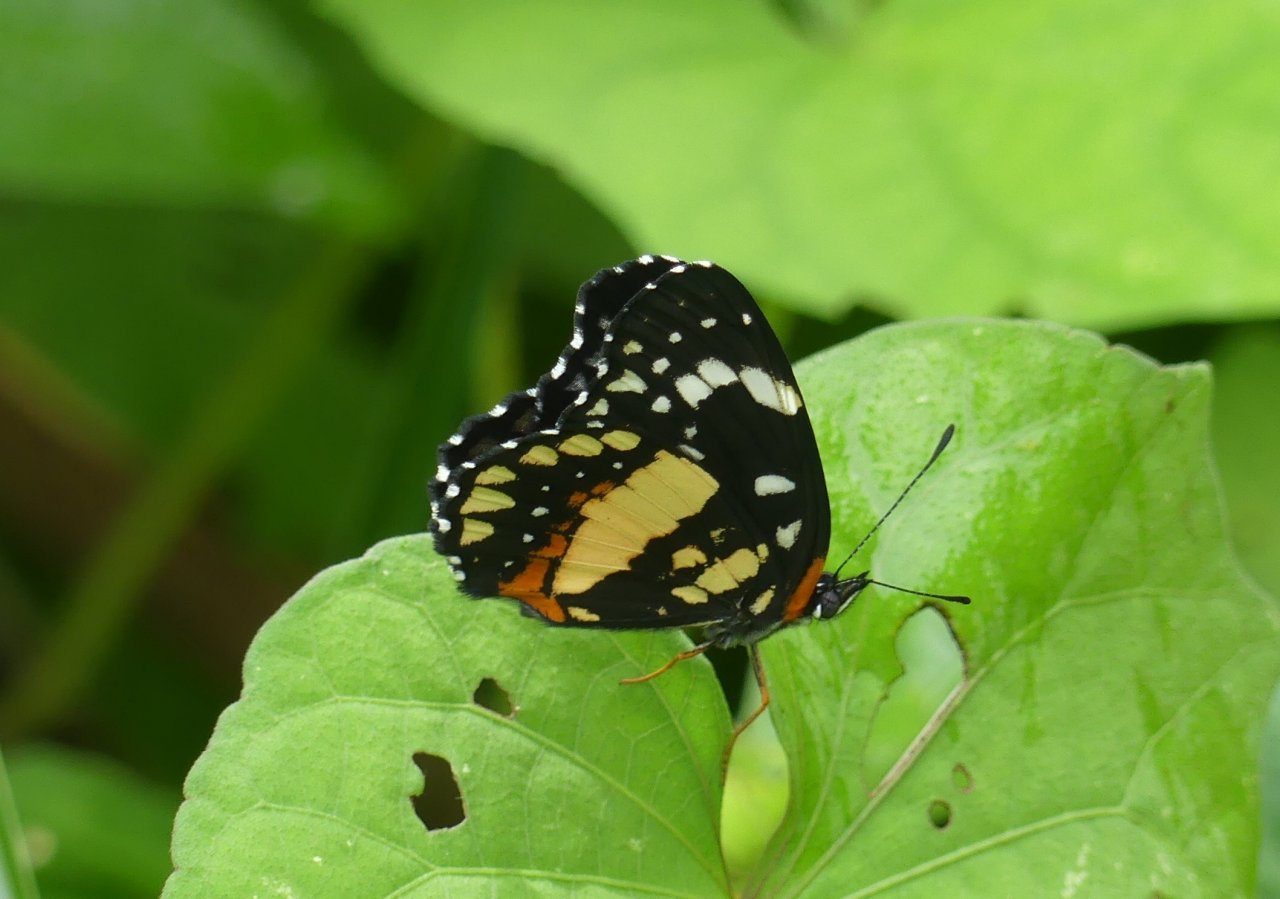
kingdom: Animalia
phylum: Arthropoda
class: Insecta
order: Lepidoptera
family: Nymphalidae
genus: Chlosyne
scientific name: Chlosyne lacinia
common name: Bordered Patch
